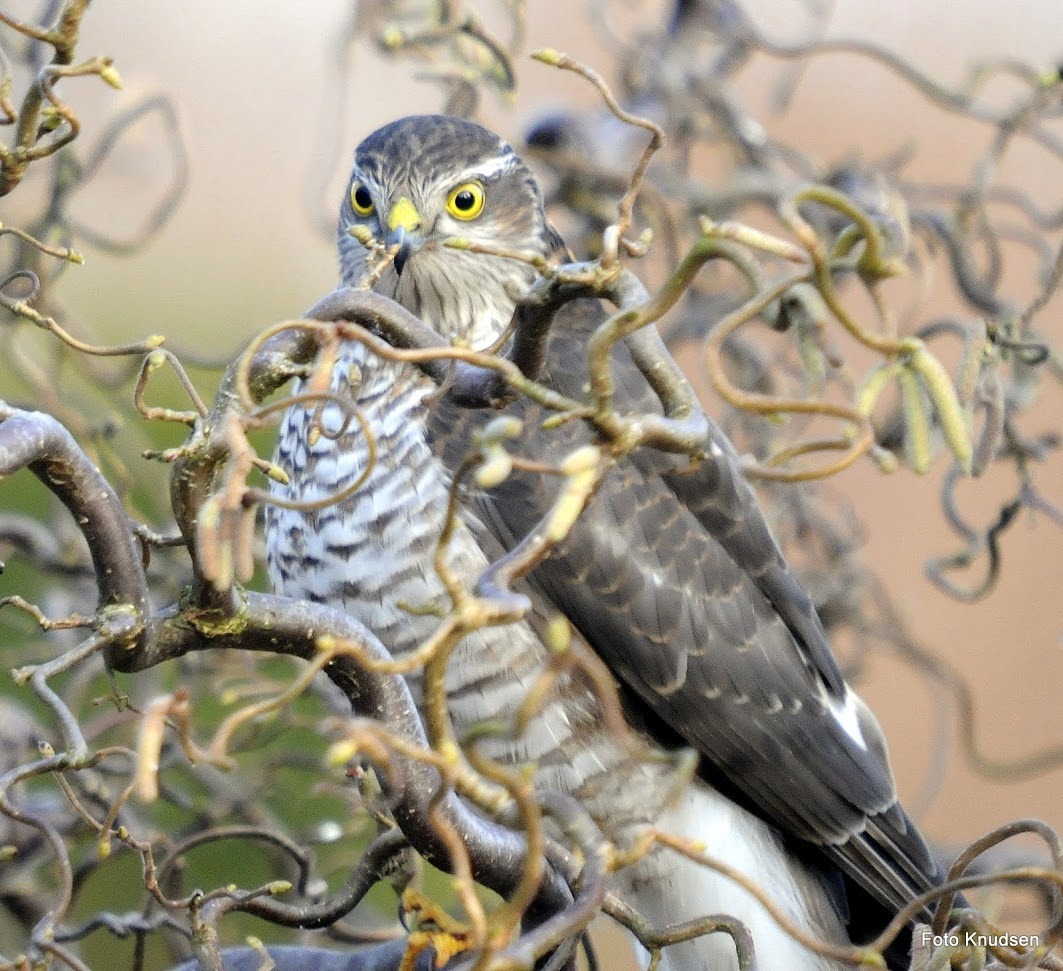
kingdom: Animalia
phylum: Chordata
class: Aves
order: Accipitriformes
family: Accipitridae
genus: Accipiter
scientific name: Accipiter nisus
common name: Spurvehøg
